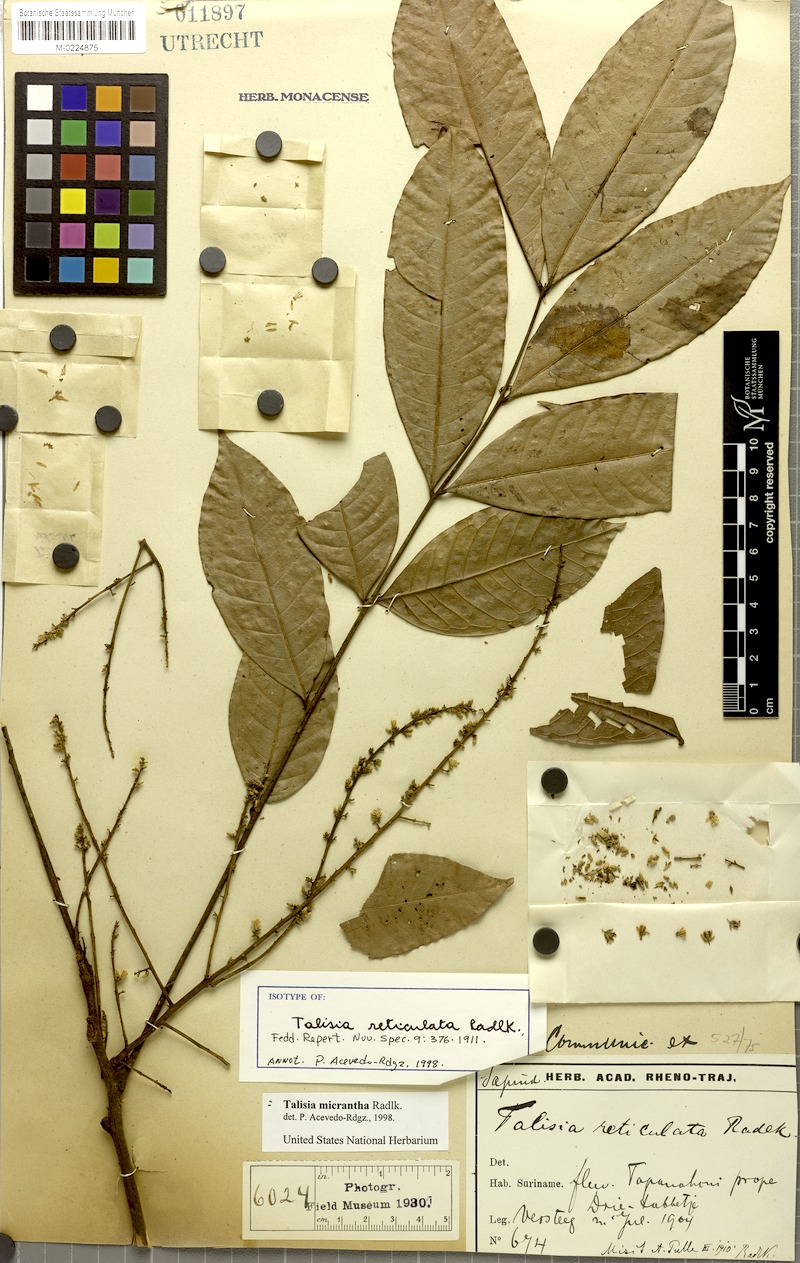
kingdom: Plantae
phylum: Tracheophyta
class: Magnoliopsida
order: Sapindales
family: Sapindaceae
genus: Talisia
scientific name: Talisia sylvatica
